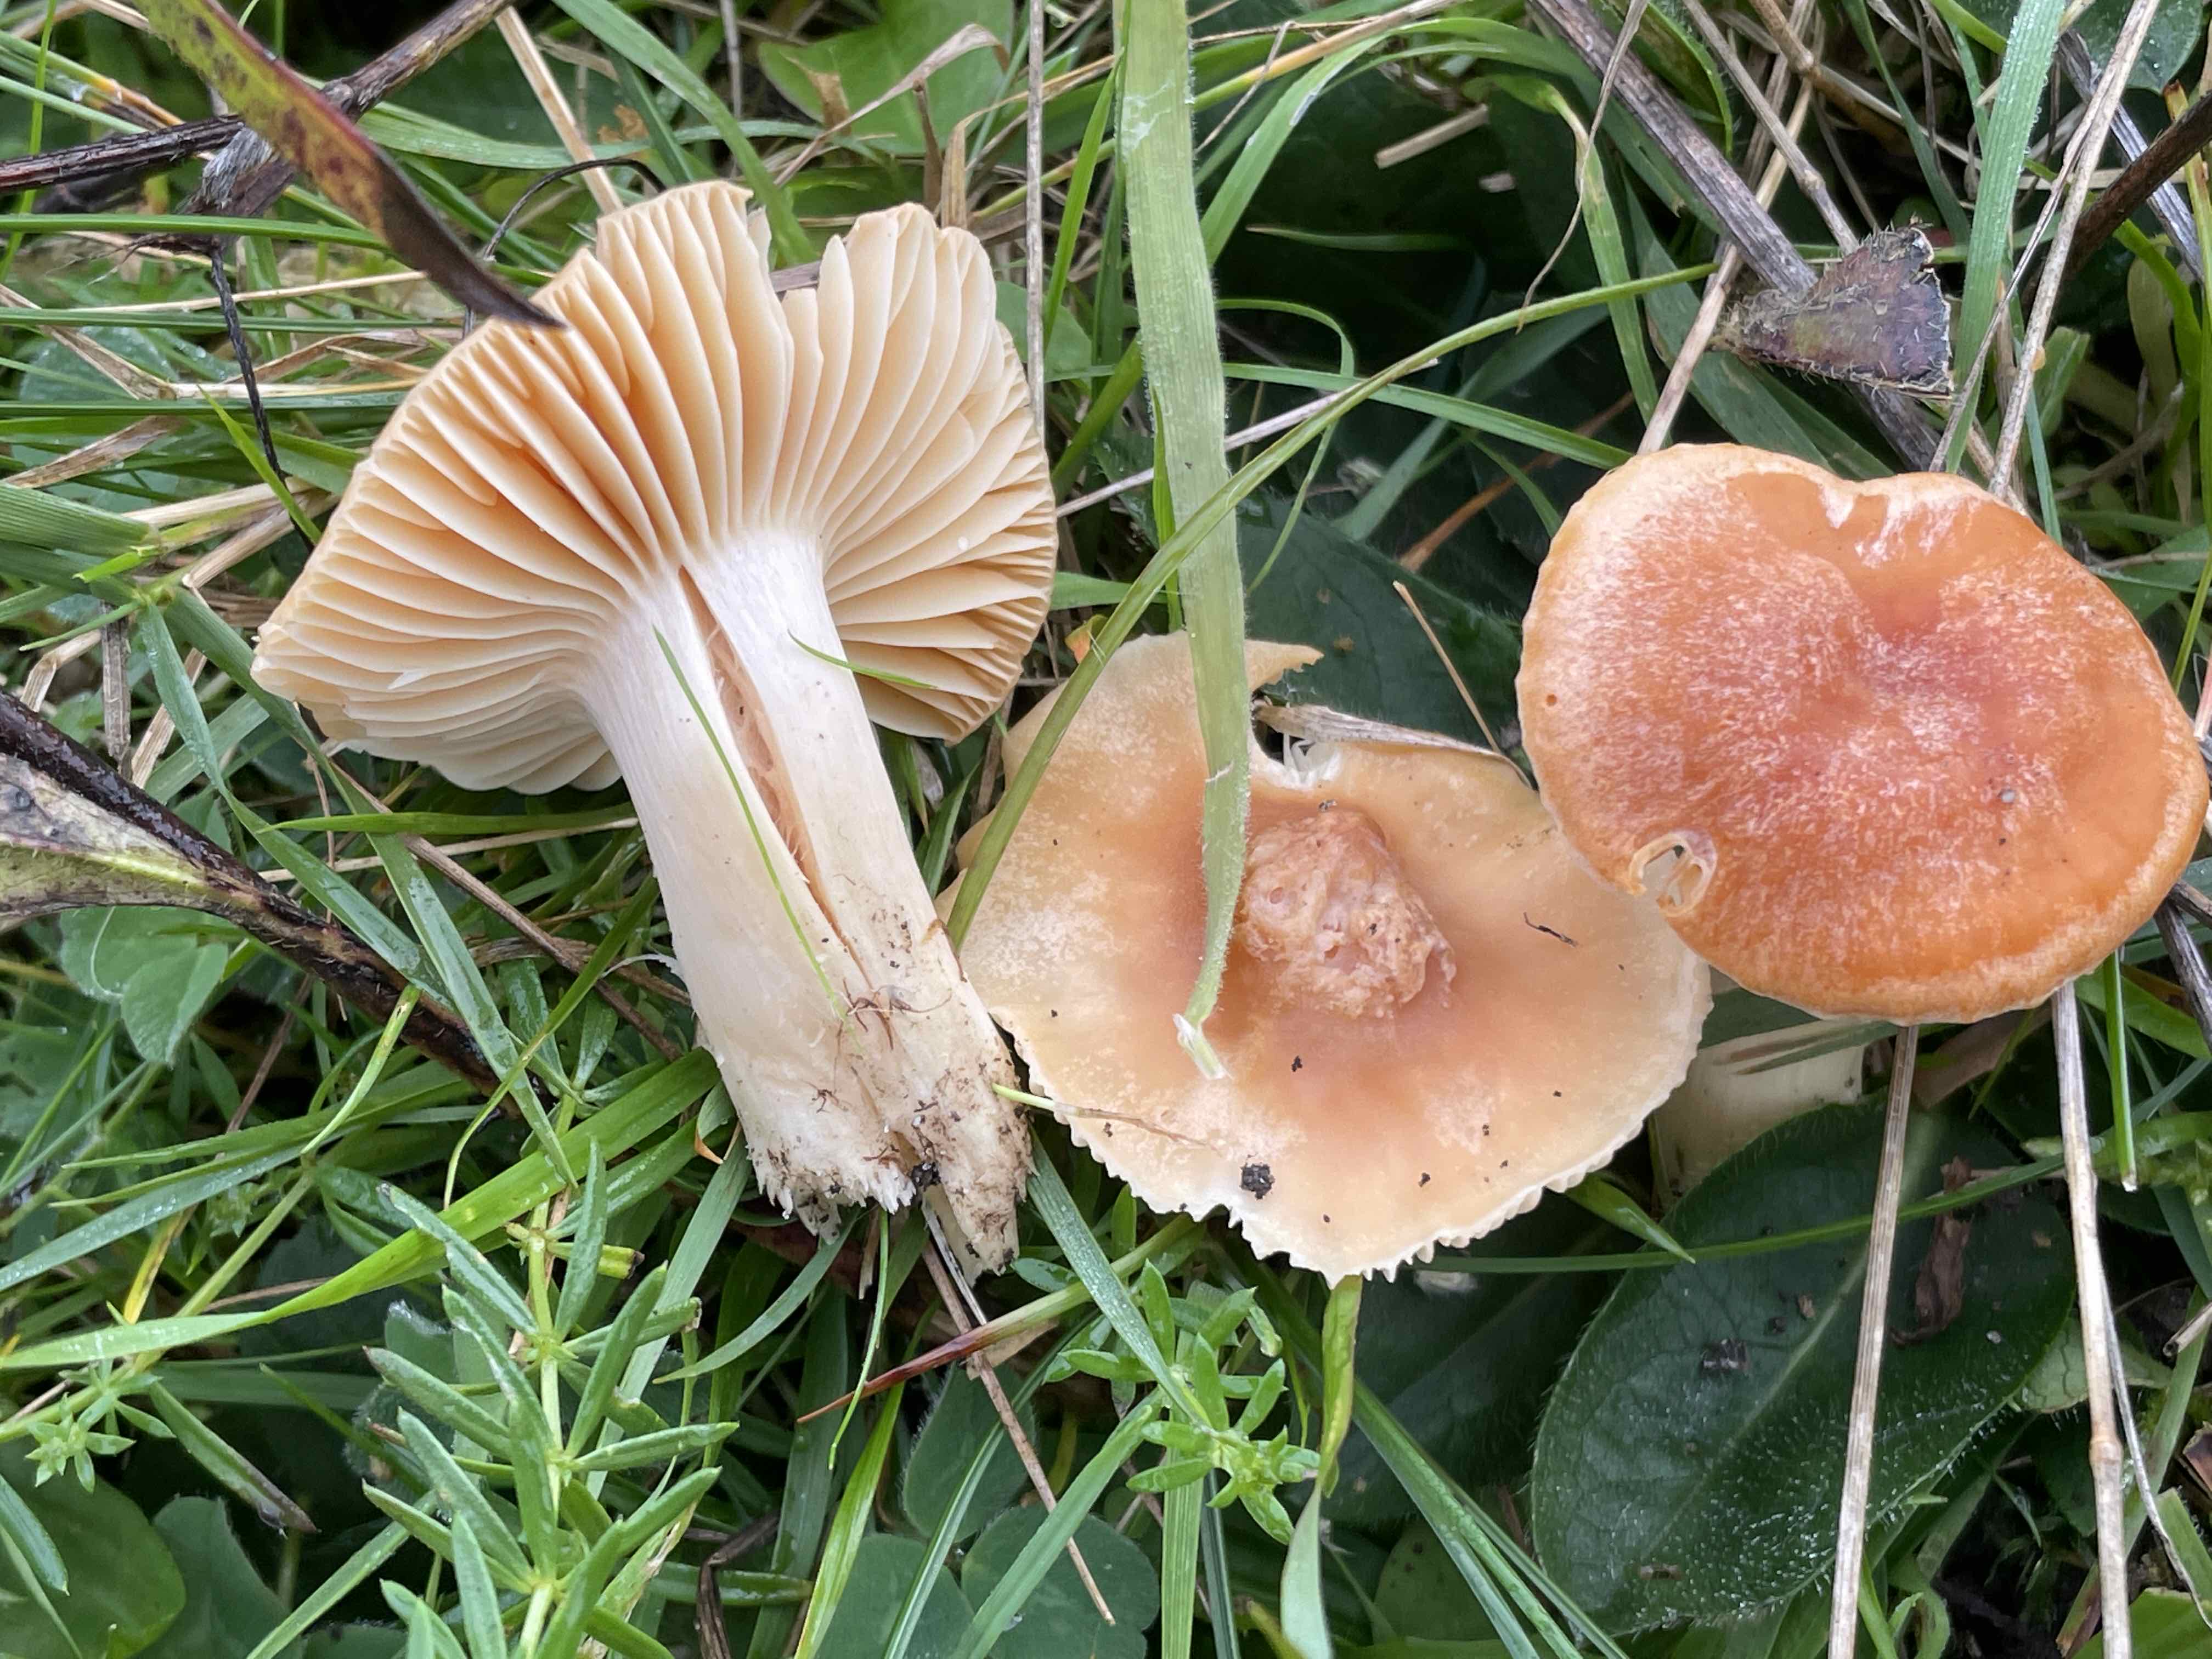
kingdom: Fungi
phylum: Basidiomycota
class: Agaricomycetes
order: Agaricales
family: Hygrophoraceae
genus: Cuphophyllus
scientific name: Cuphophyllus pratensis
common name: eng-vokshat
